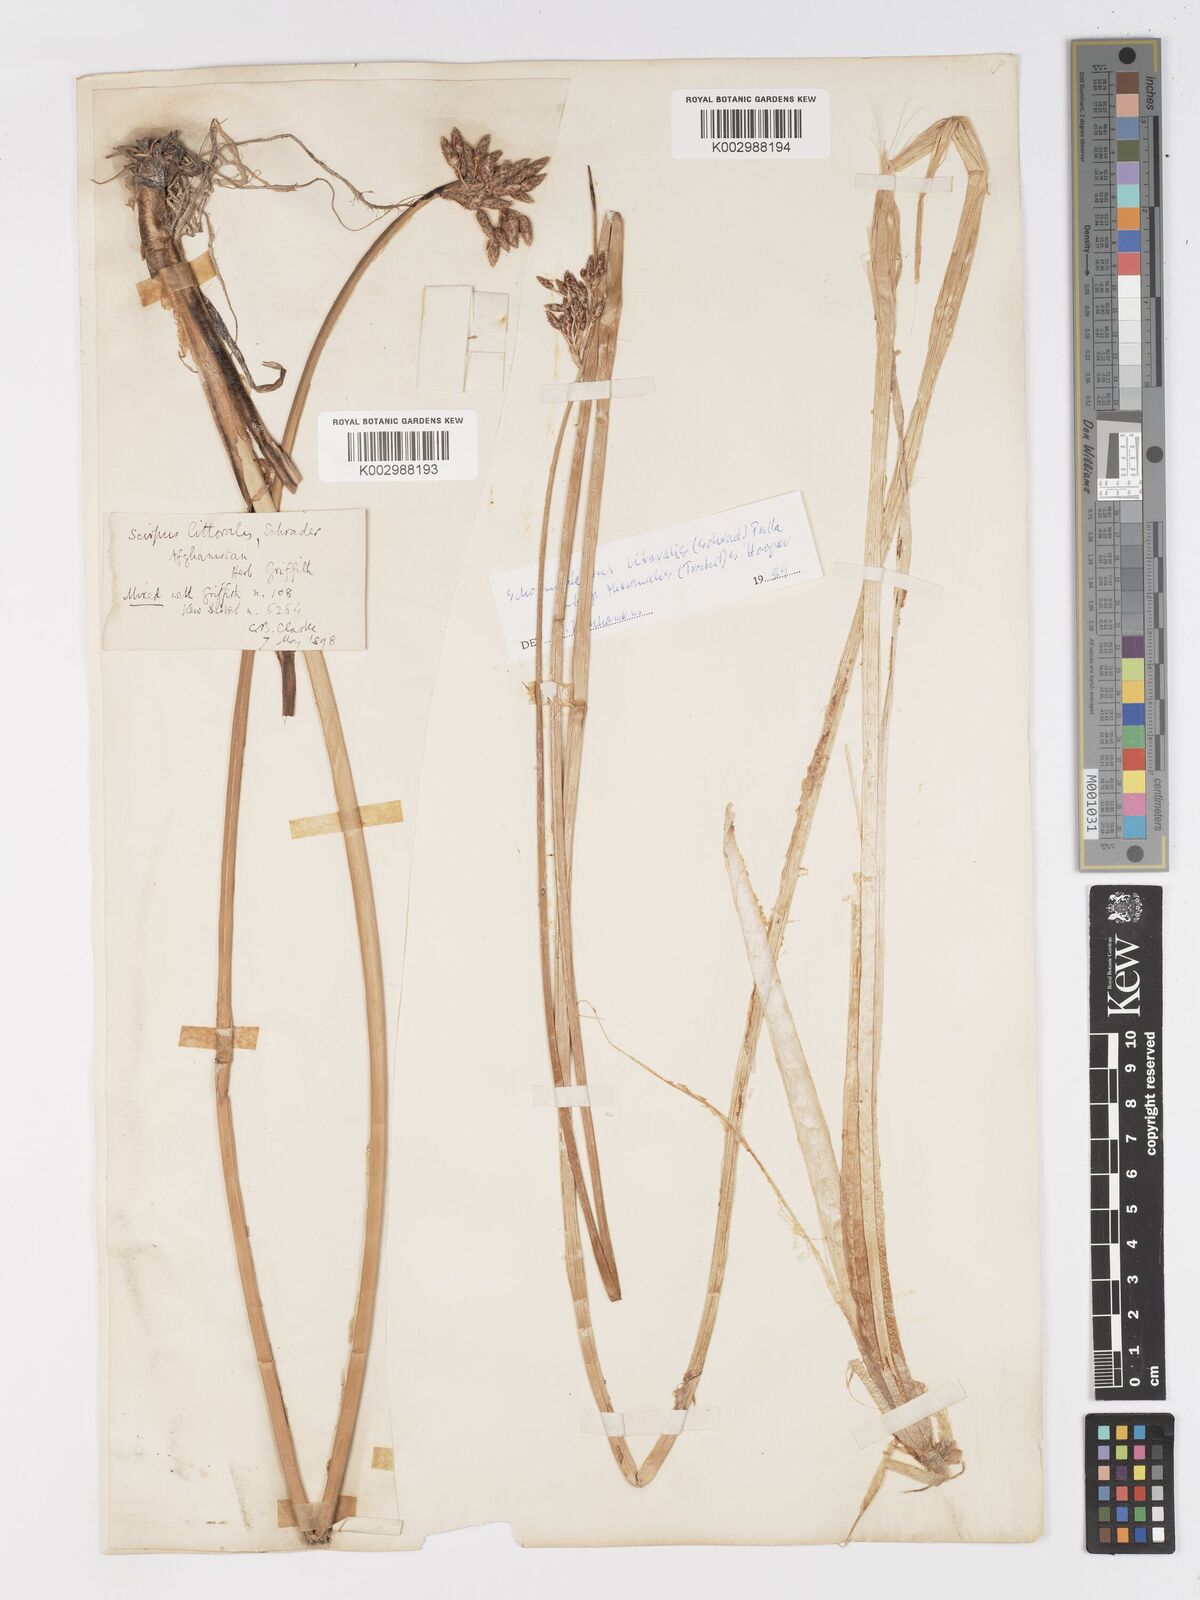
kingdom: Plantae
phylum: Tracheophyta
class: Liliopsida
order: Poales
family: Cyperaceae
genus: Schoenoplectus
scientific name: Schoenoplectus litoralis
